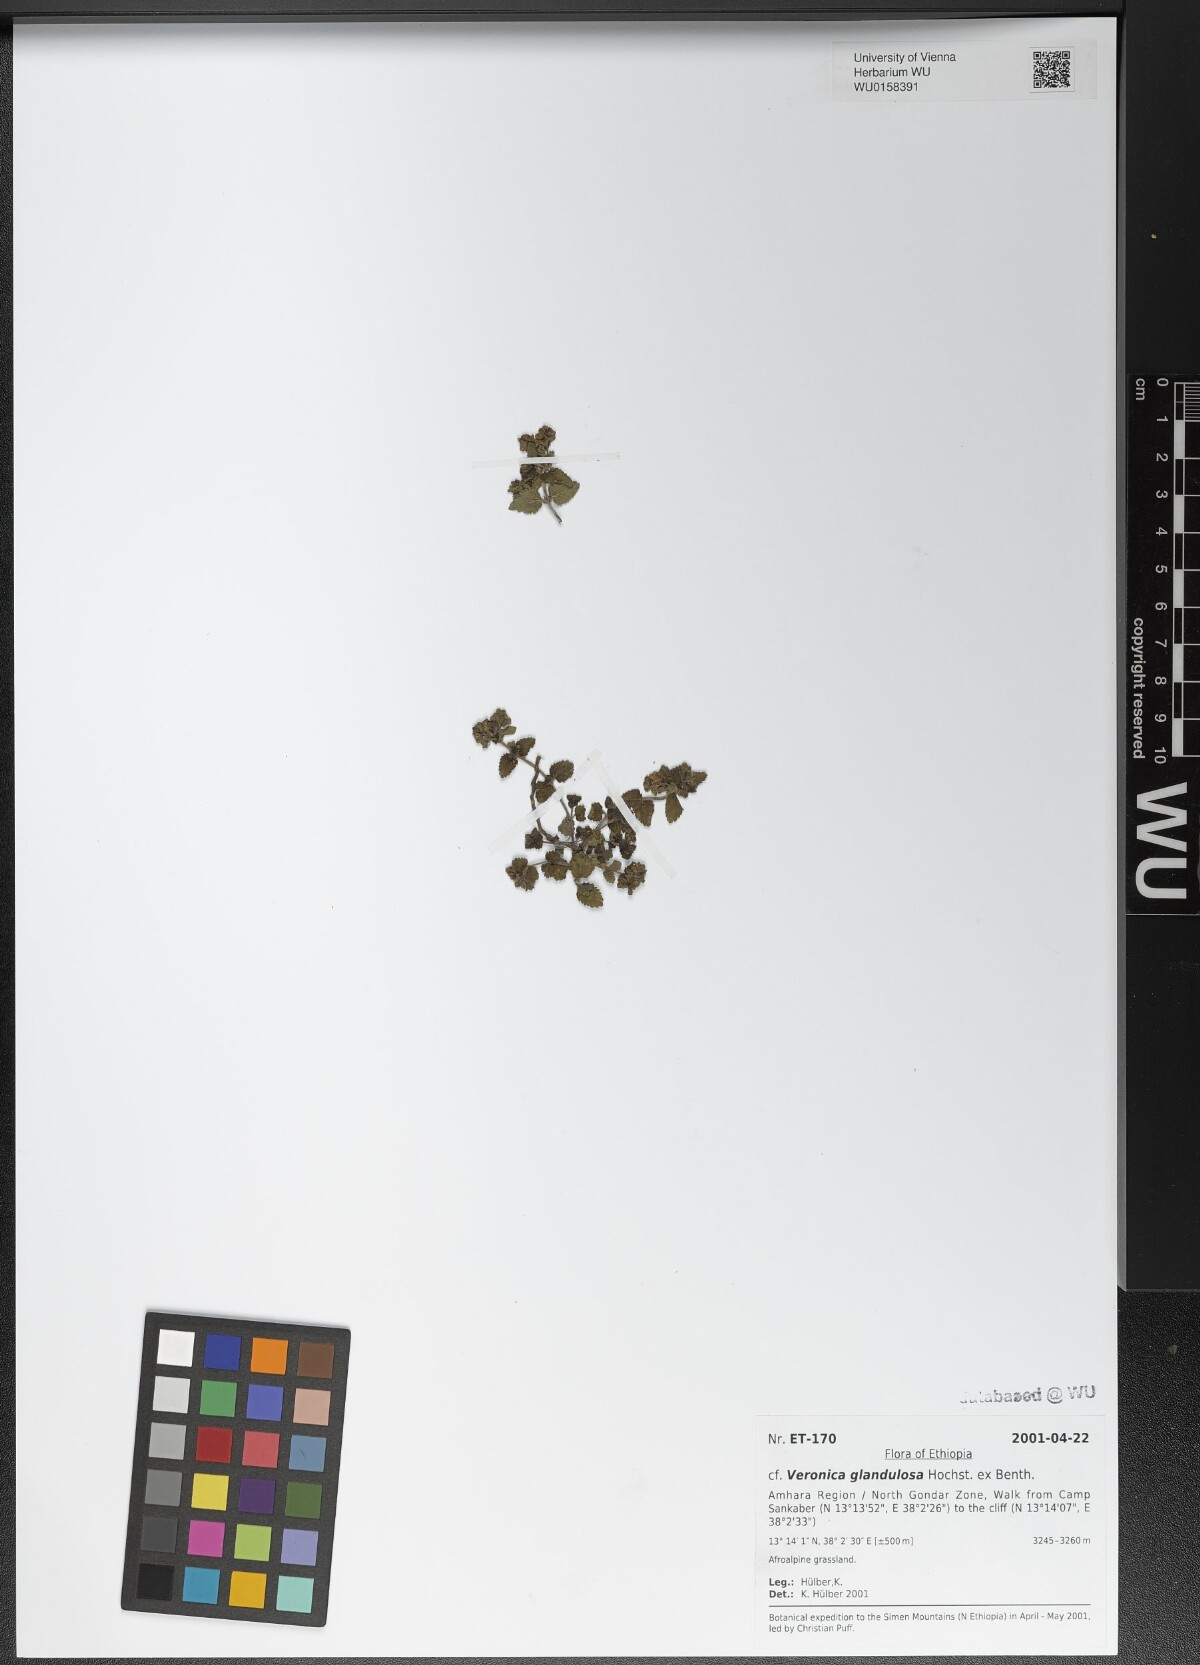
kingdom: Plantae
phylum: Tracheophyta
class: Magnoliopsida
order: Lamiales
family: Plantaginaceae
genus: Veronica
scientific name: Veronica glandulosa
